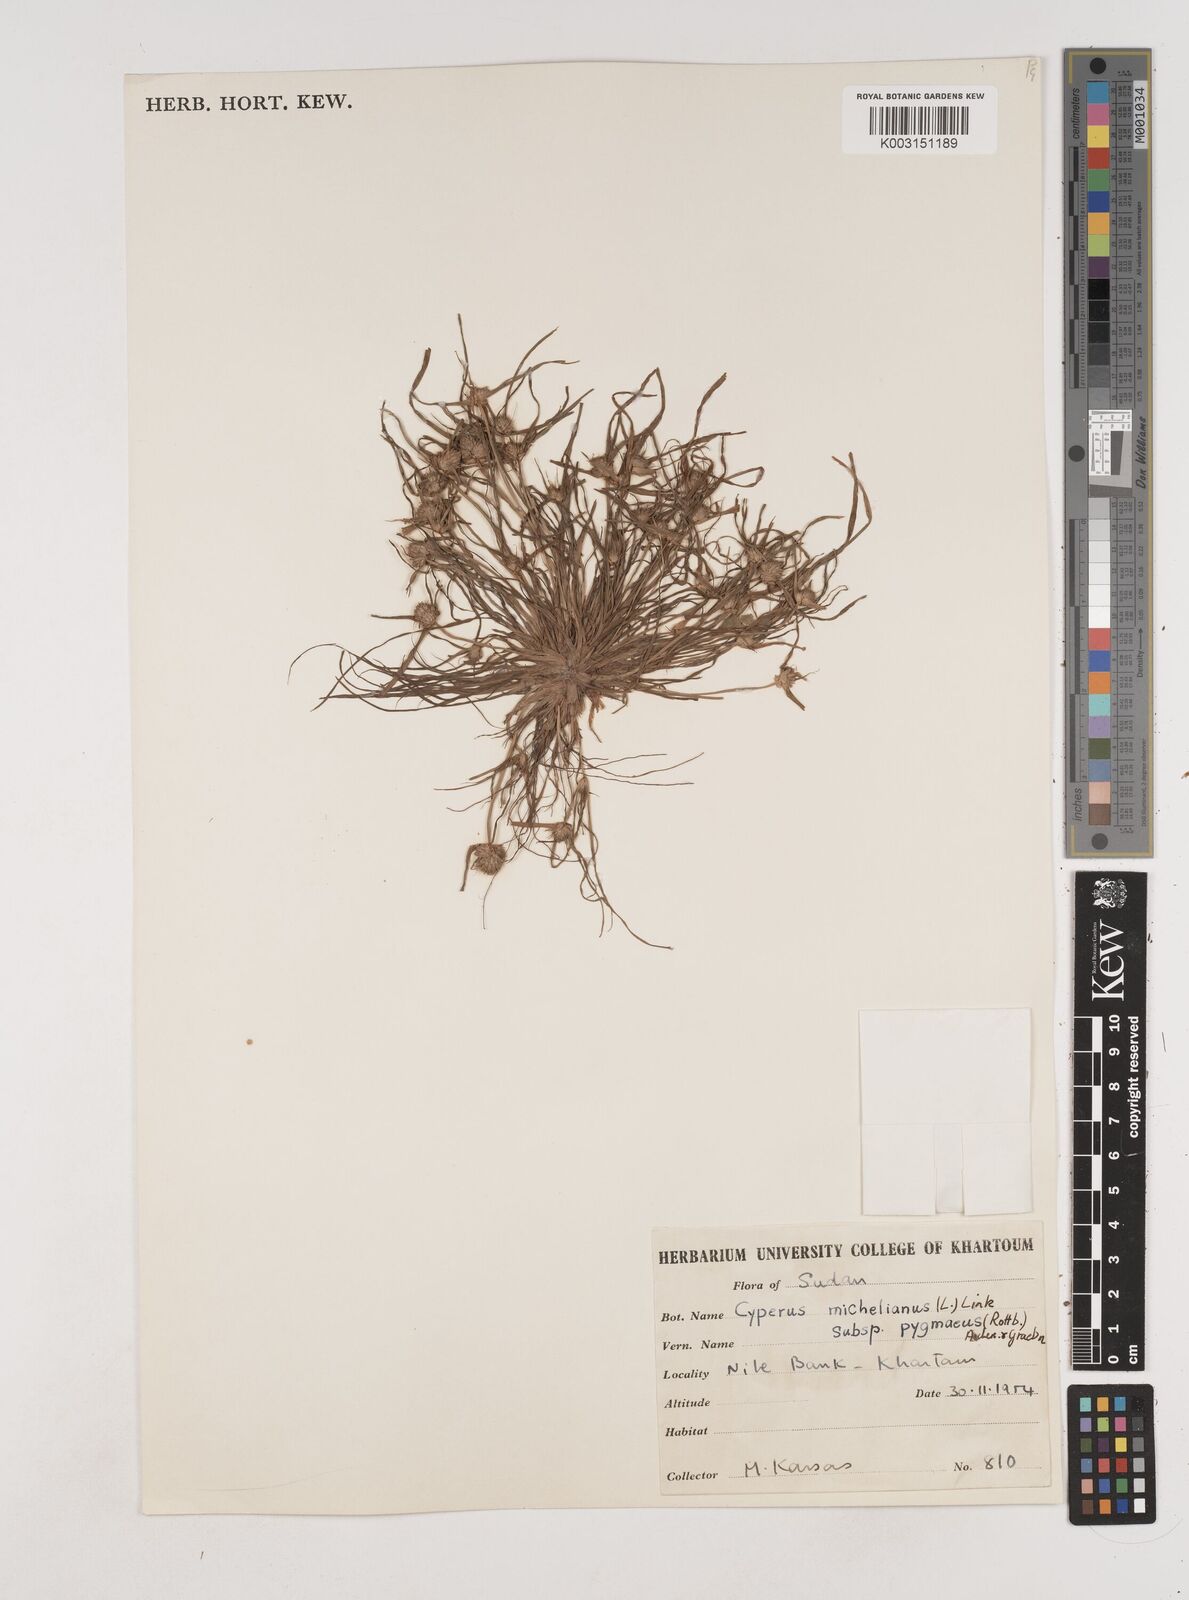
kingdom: Plantae
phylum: Tracheophyta
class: Liliopsida
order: Poales
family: Cyperaceae
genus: Cyperus
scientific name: Cyperus michelianus
